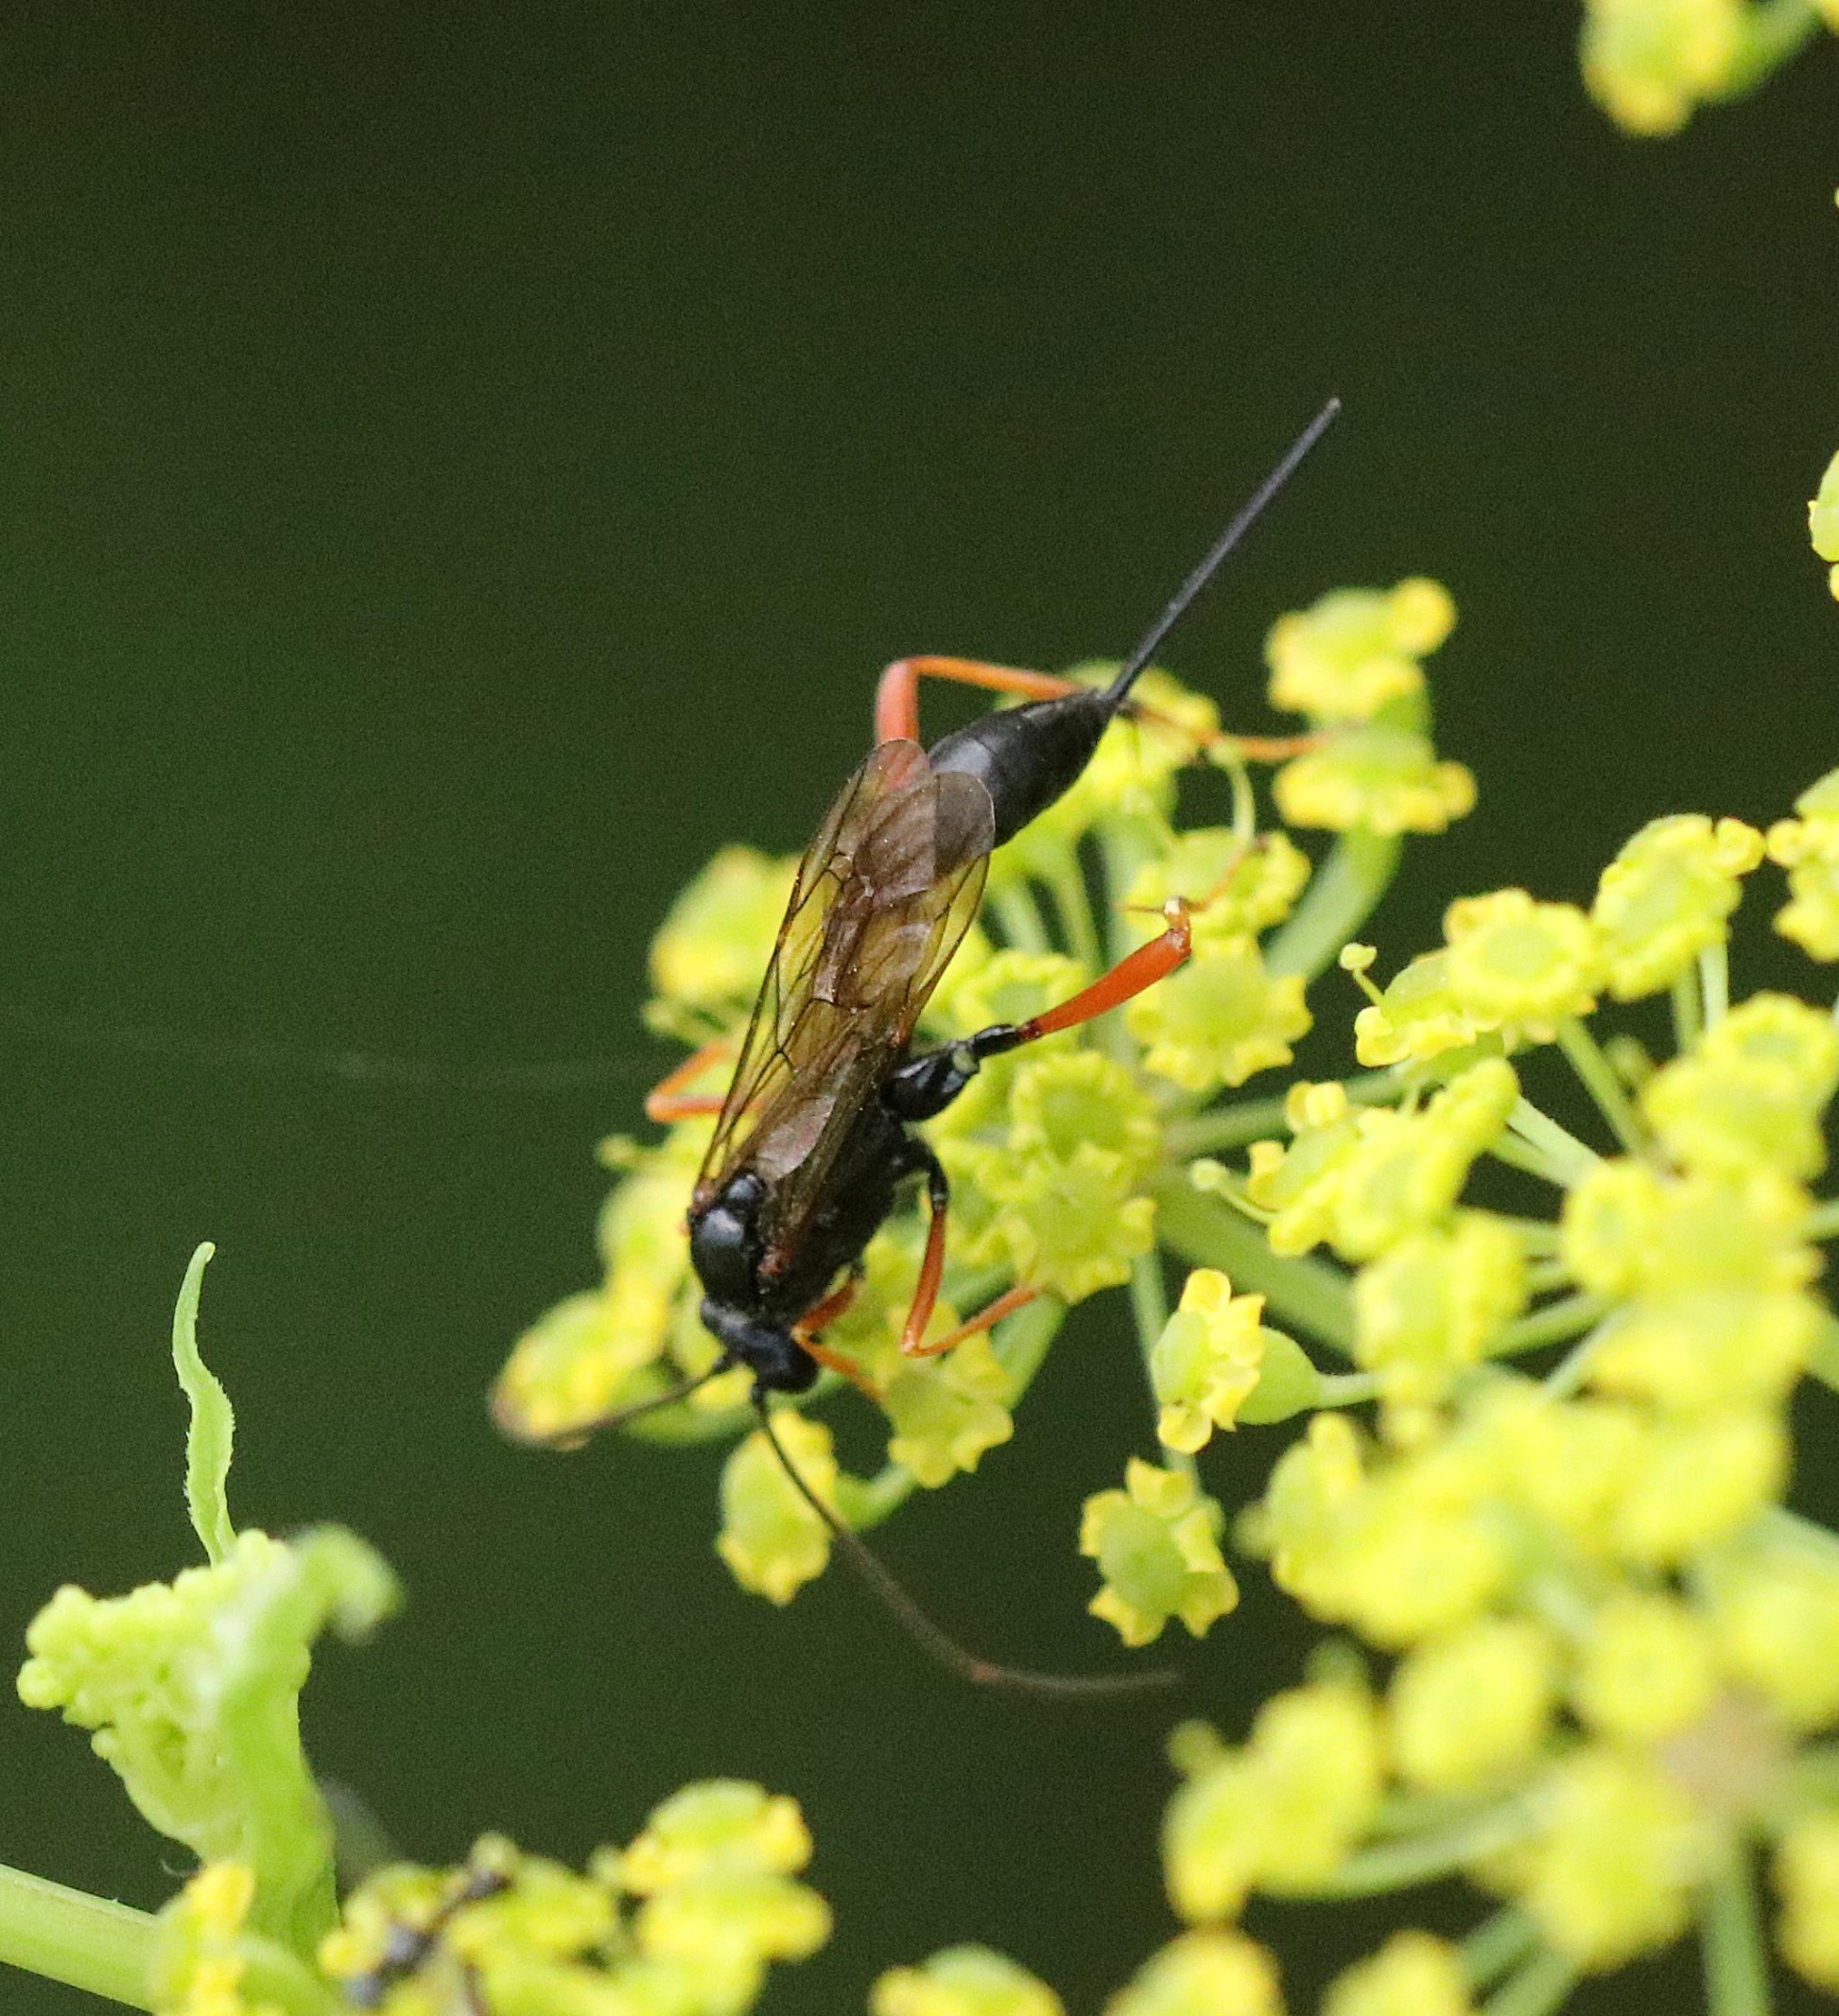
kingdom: Animalia
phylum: Arthropoda
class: Insecta
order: Hymenoptera
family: Ichneumonidae
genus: Acroricnus
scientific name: Acroricnus stylator
